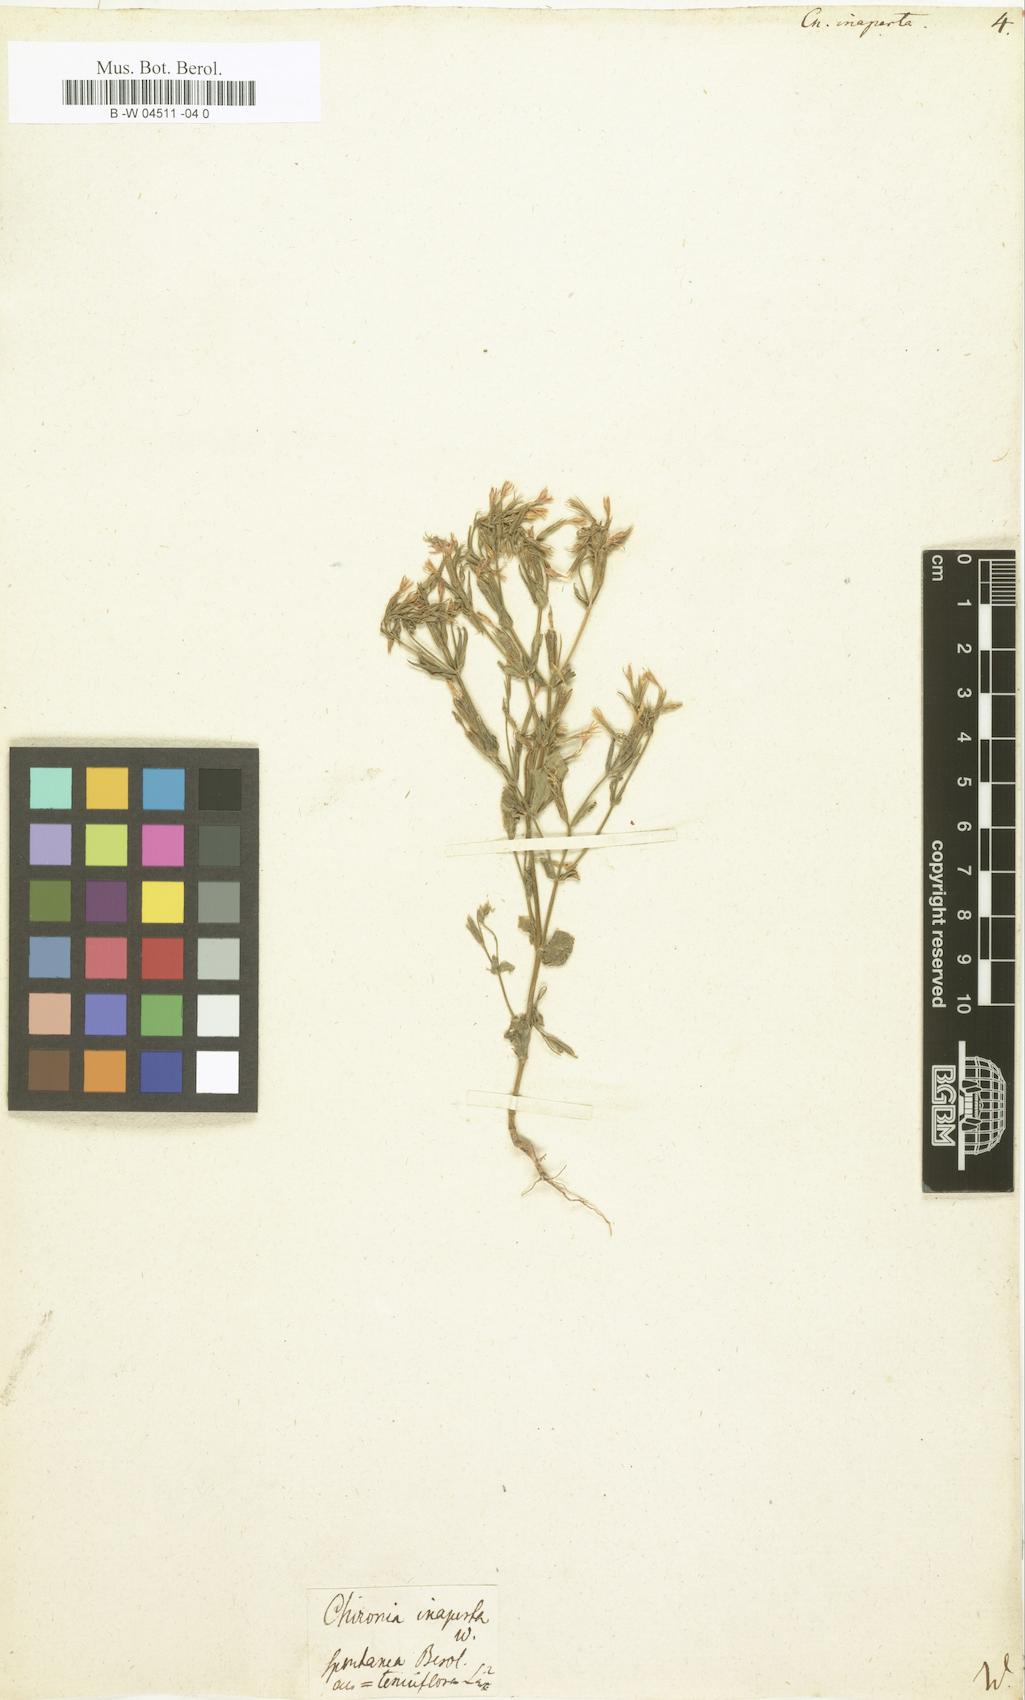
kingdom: Plantae
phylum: Tracheophyta
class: Magnoliopsida
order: Gentianales
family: Gentianaceae
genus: Centaurium
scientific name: Centaurium pulchellum
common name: Lesser centaury
